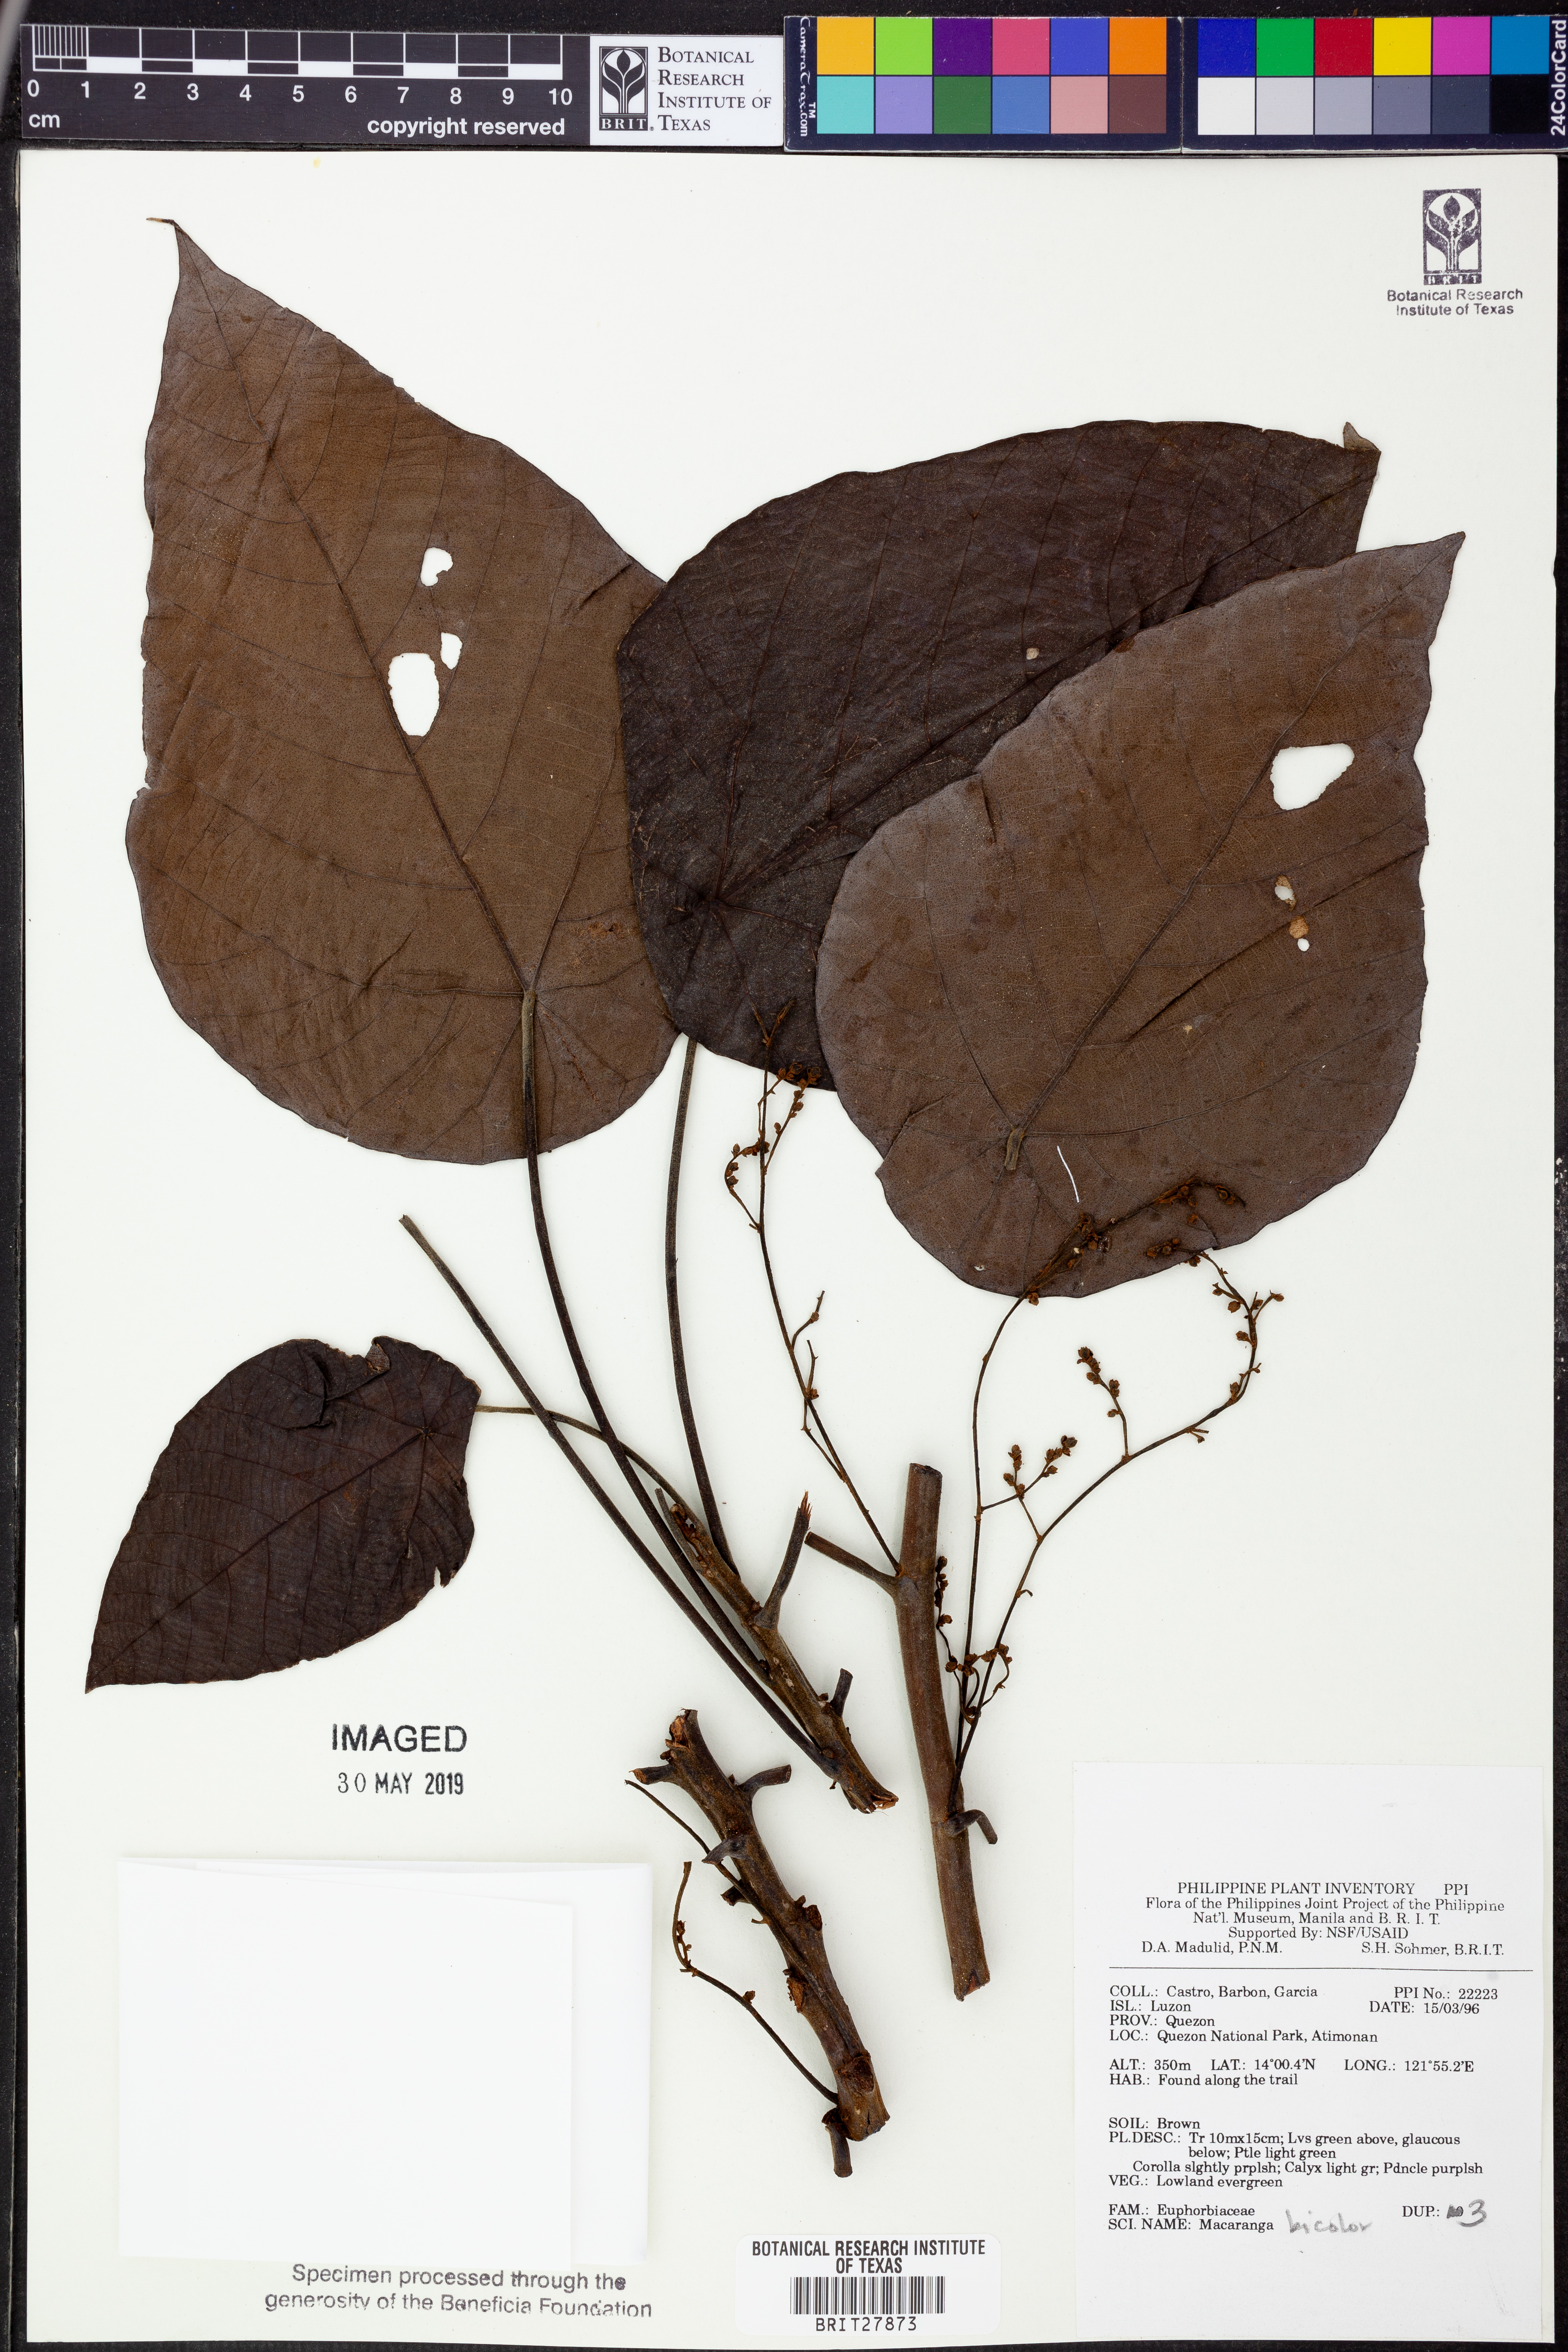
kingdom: Plantae
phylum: Tracheophyta
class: Magnoliopsida
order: Malpighiales
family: Euphorbiaceae
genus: Macaranga
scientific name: Macaranga bicolor
